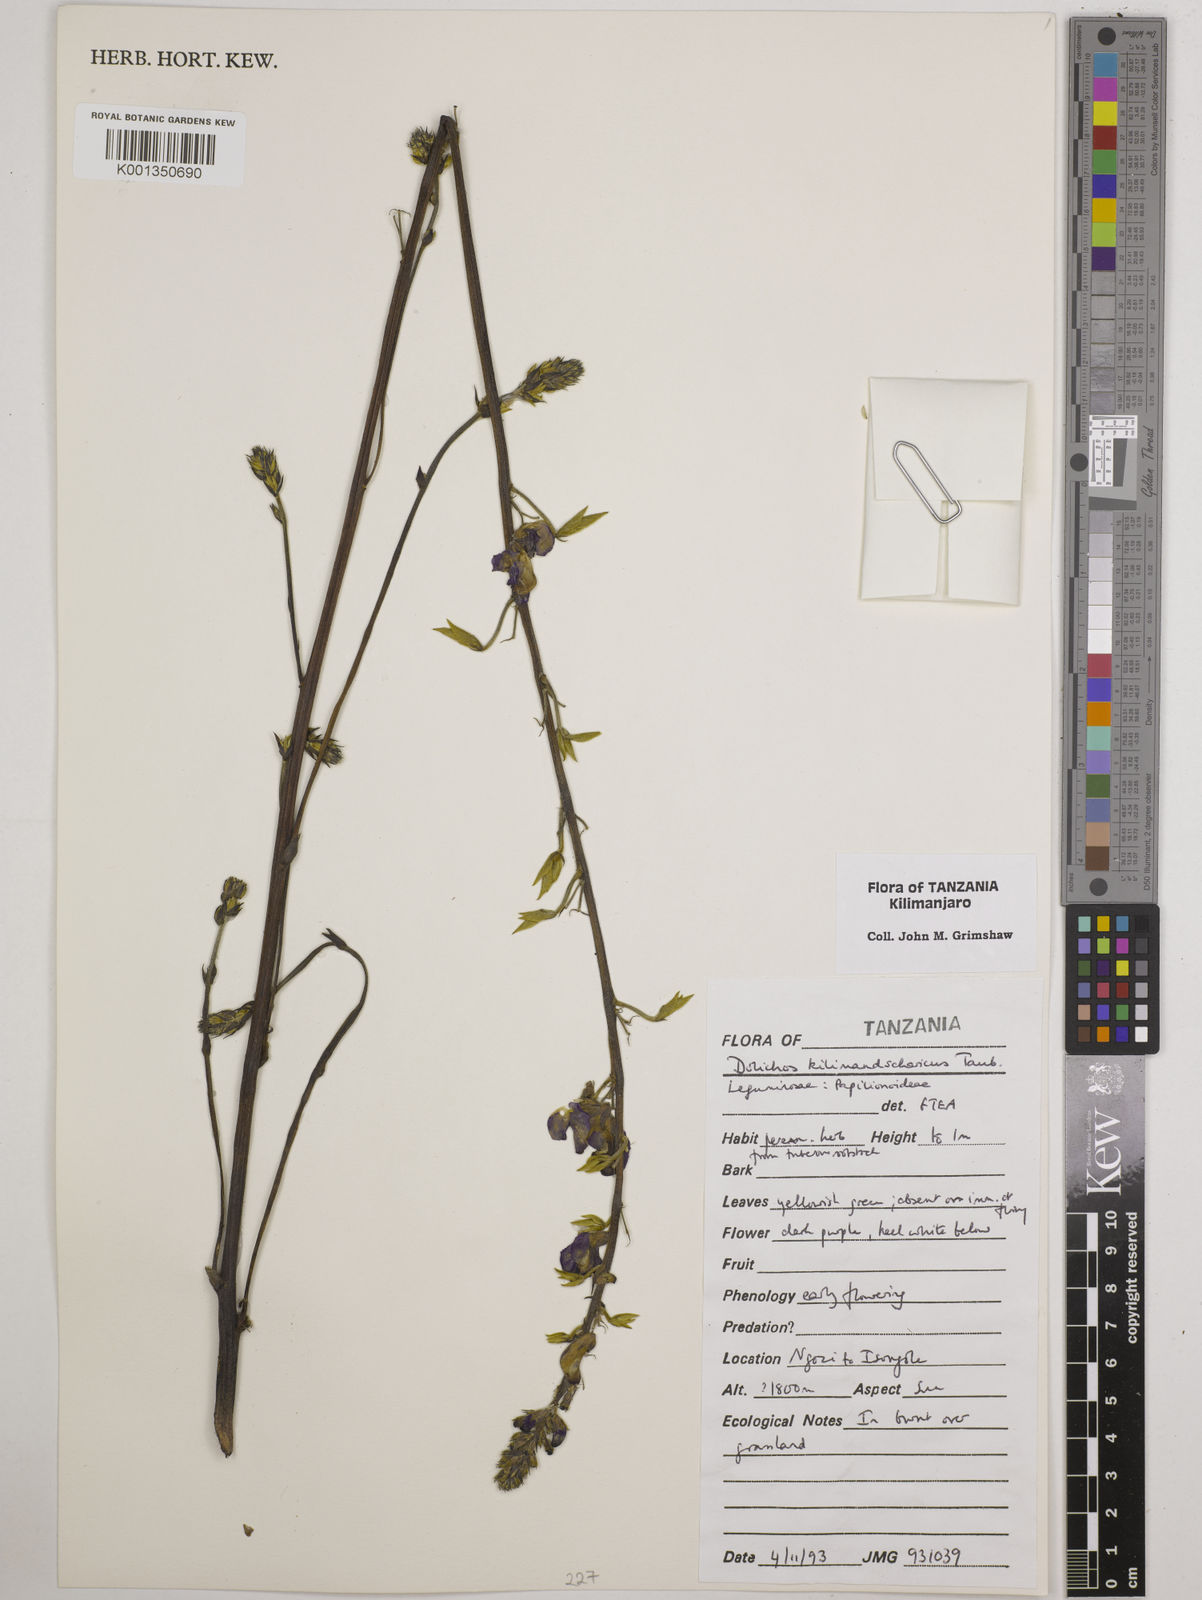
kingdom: Plantae
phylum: Tracheophyta
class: Magnoliopsida
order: Fabales
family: Fabaceae
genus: Dolichos
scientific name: Dolichos kilimandscharicus
